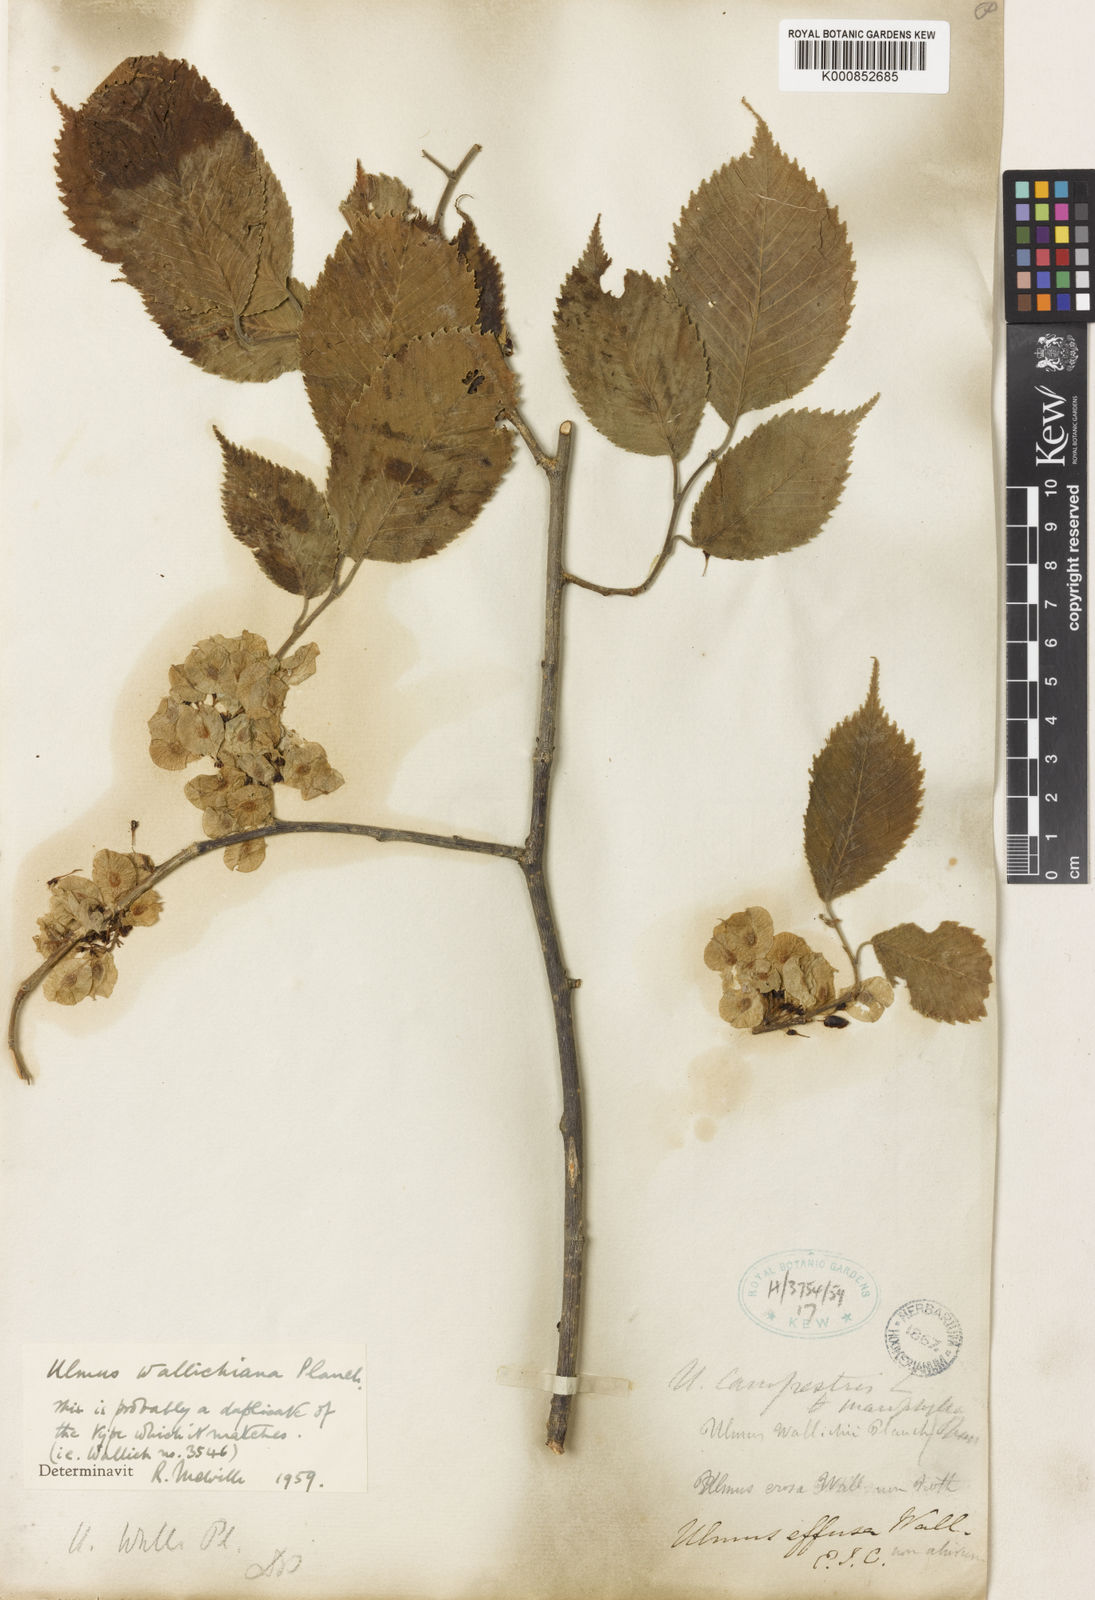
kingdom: Plantae
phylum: Tracheophyta
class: Magnoliopsida
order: Rosales
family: Ulmaceae
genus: Ulmus
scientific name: Ulmus wallichiana
